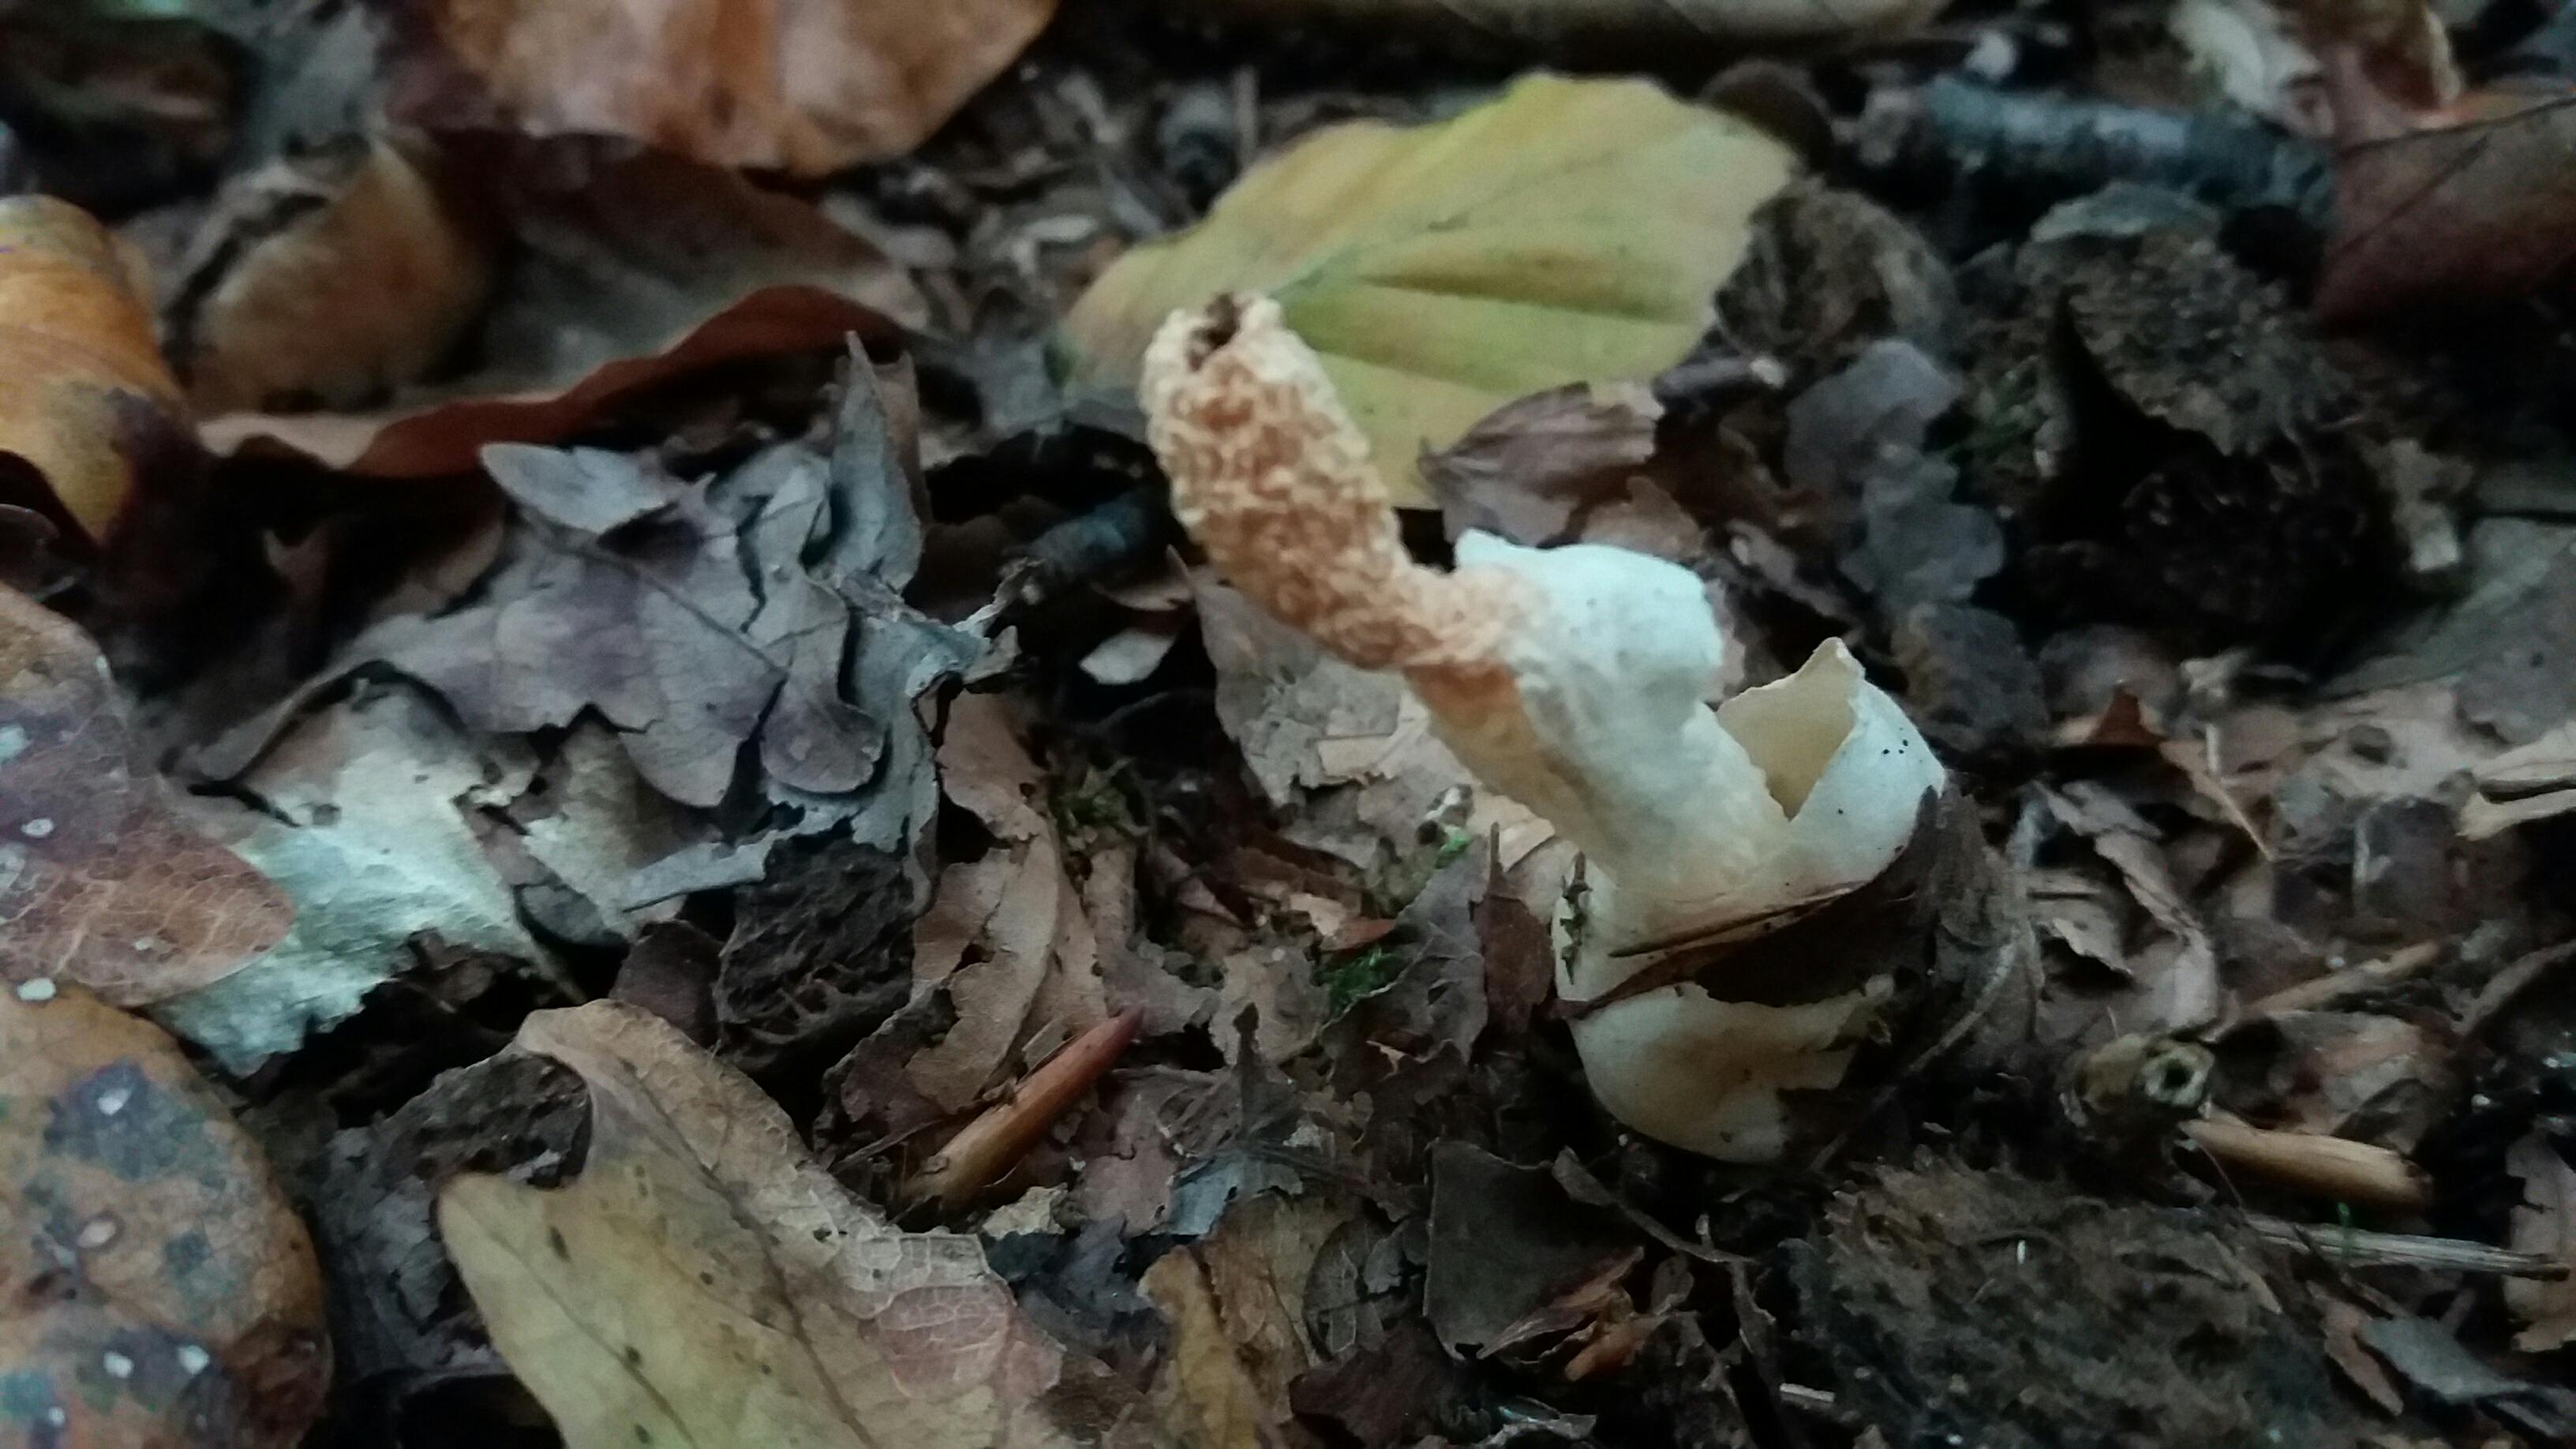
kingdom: Fungi
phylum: Basidiomycota
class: Agaricomycetes
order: Phallales
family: Phallaceae
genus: Mutinus
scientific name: Mutinus caninus
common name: hunde-stinksvamp
